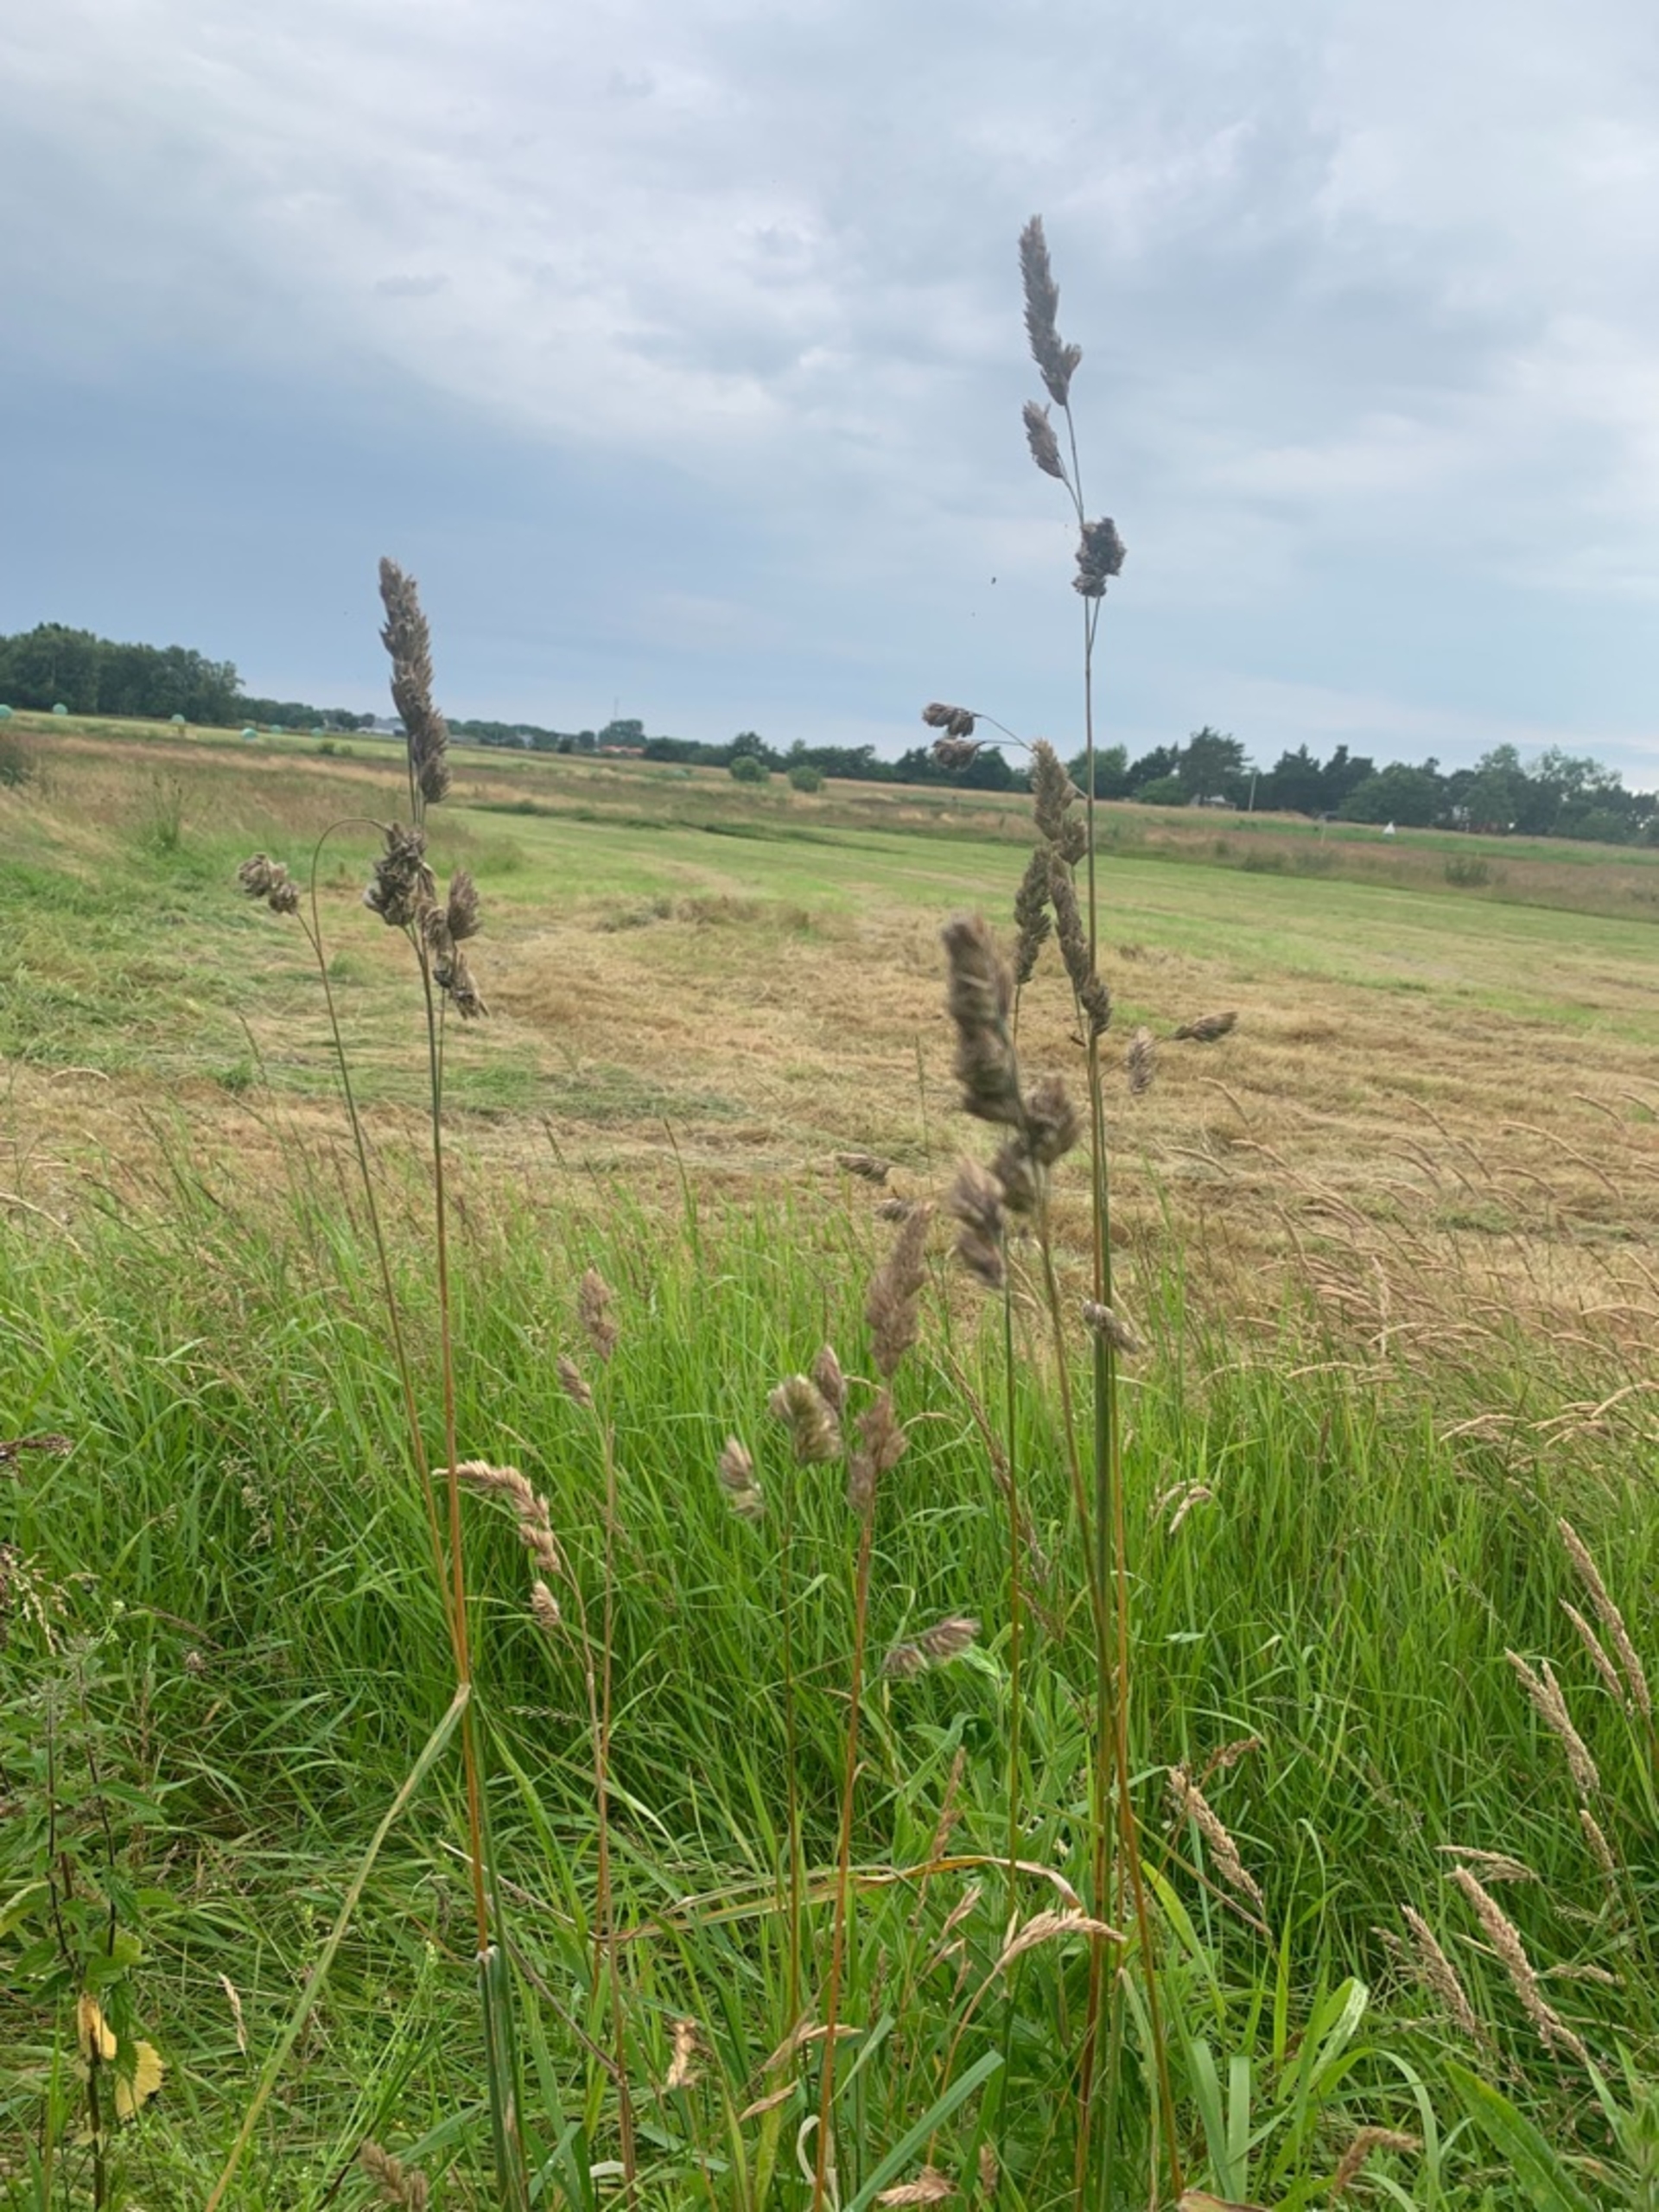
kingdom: Plantae
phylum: Tracheophyta
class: Liliopsida
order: Poales
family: Poaceae
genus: Dactylis
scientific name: Dactylis glomerata
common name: Almindelig hundegræs
